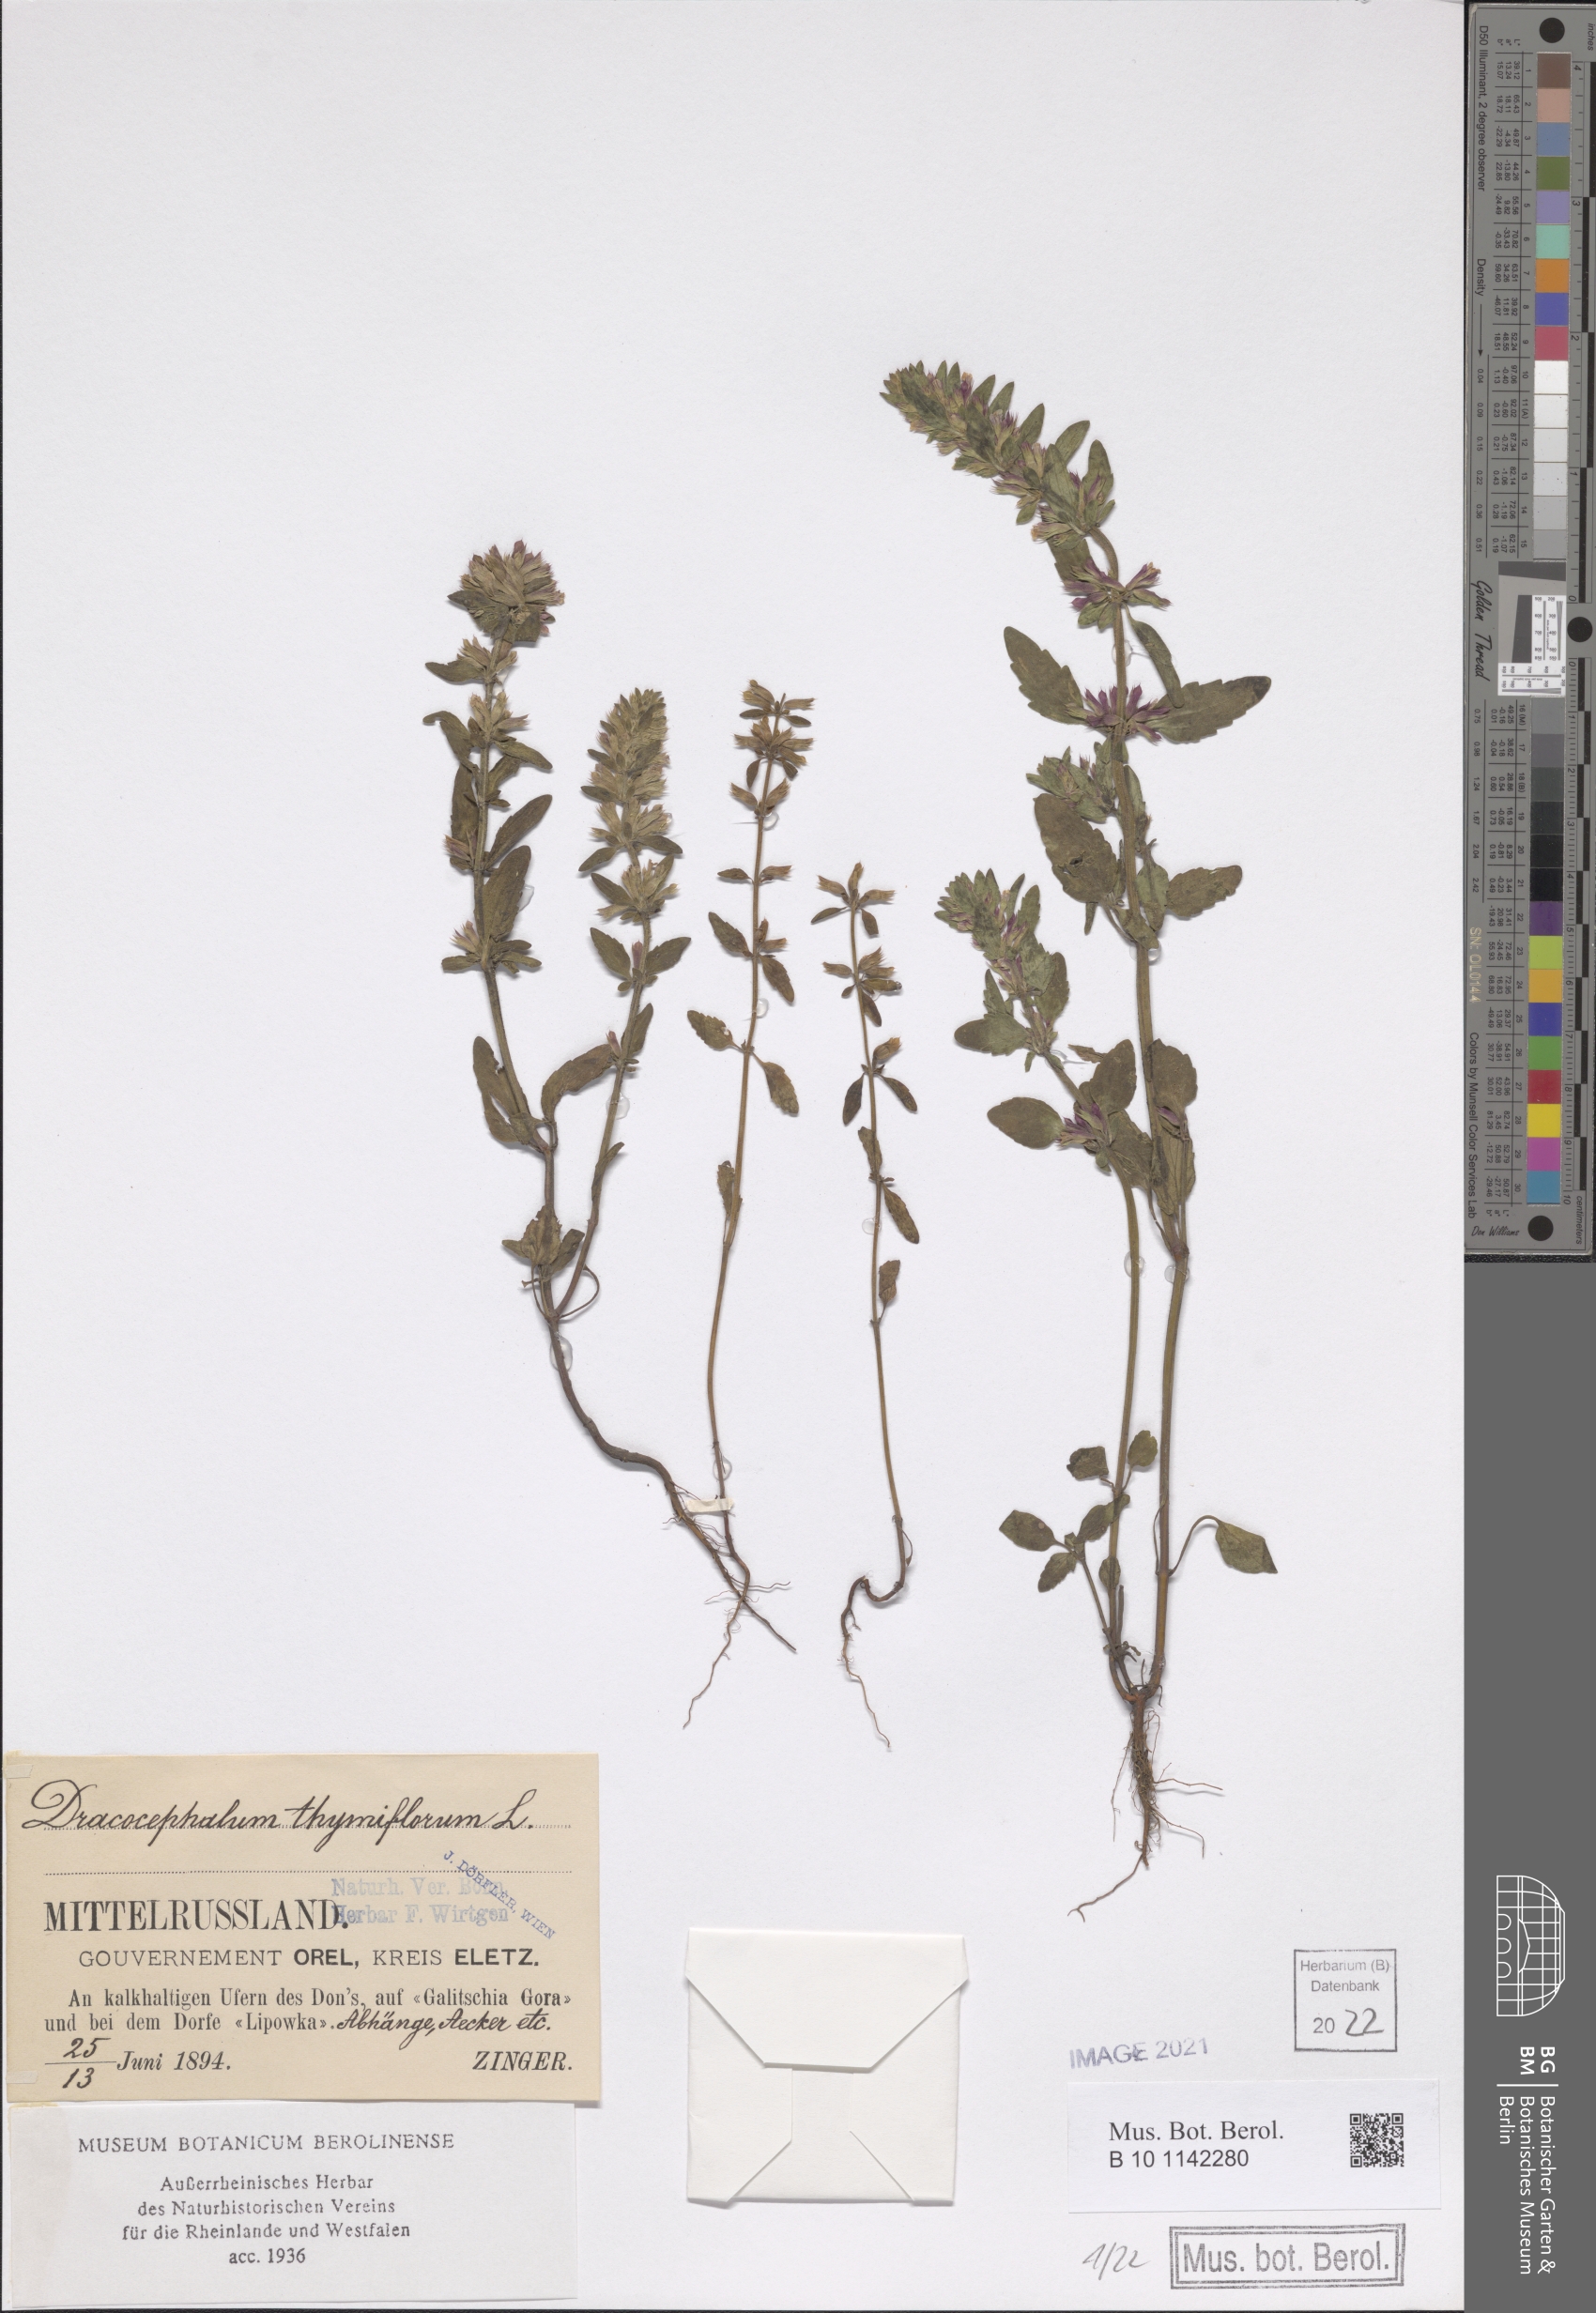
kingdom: Plantae
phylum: Tracheophyta
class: Magnoliopsida
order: Lamiales
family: Lamiaceae
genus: Dracocephalum
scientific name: Dracocephalum thymiflorum
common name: Thymeleaf dragonhead
